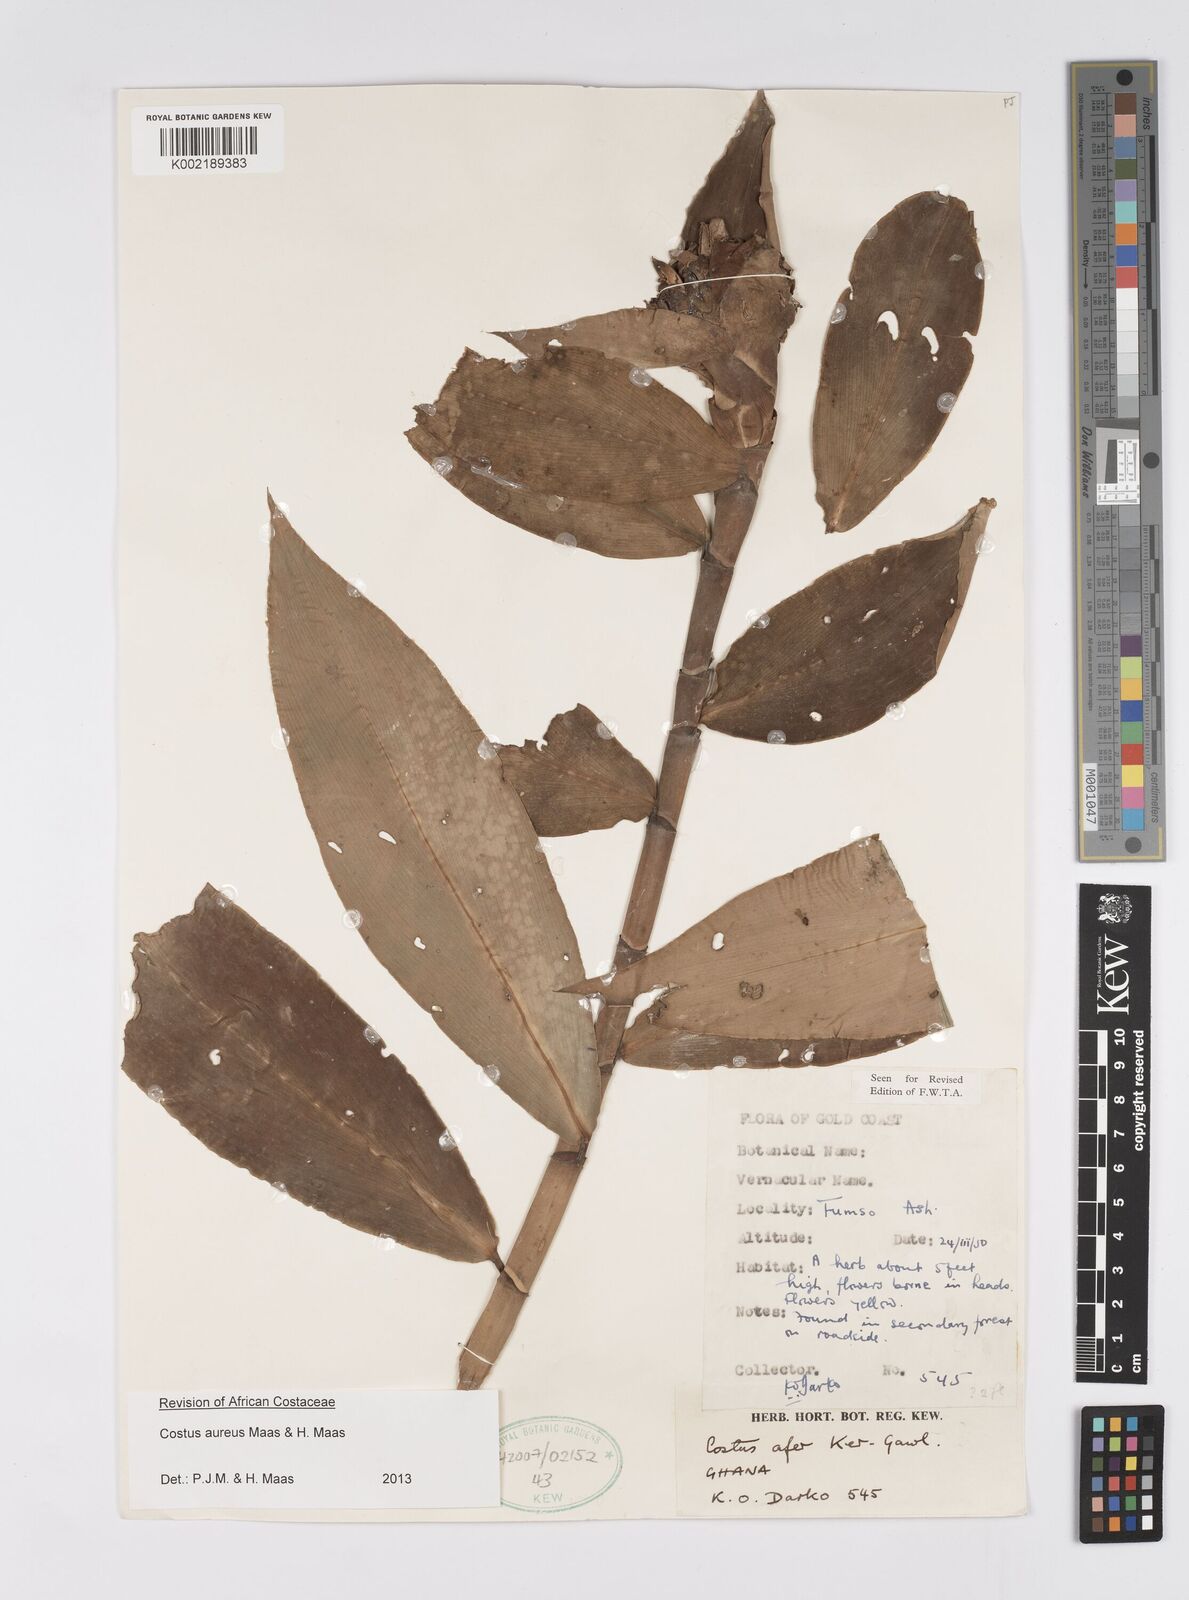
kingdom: Plantae
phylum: Tracheophyta
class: Liliopsida
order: Zingiberales
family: Costaceae
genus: Costus
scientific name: Costus aureus
